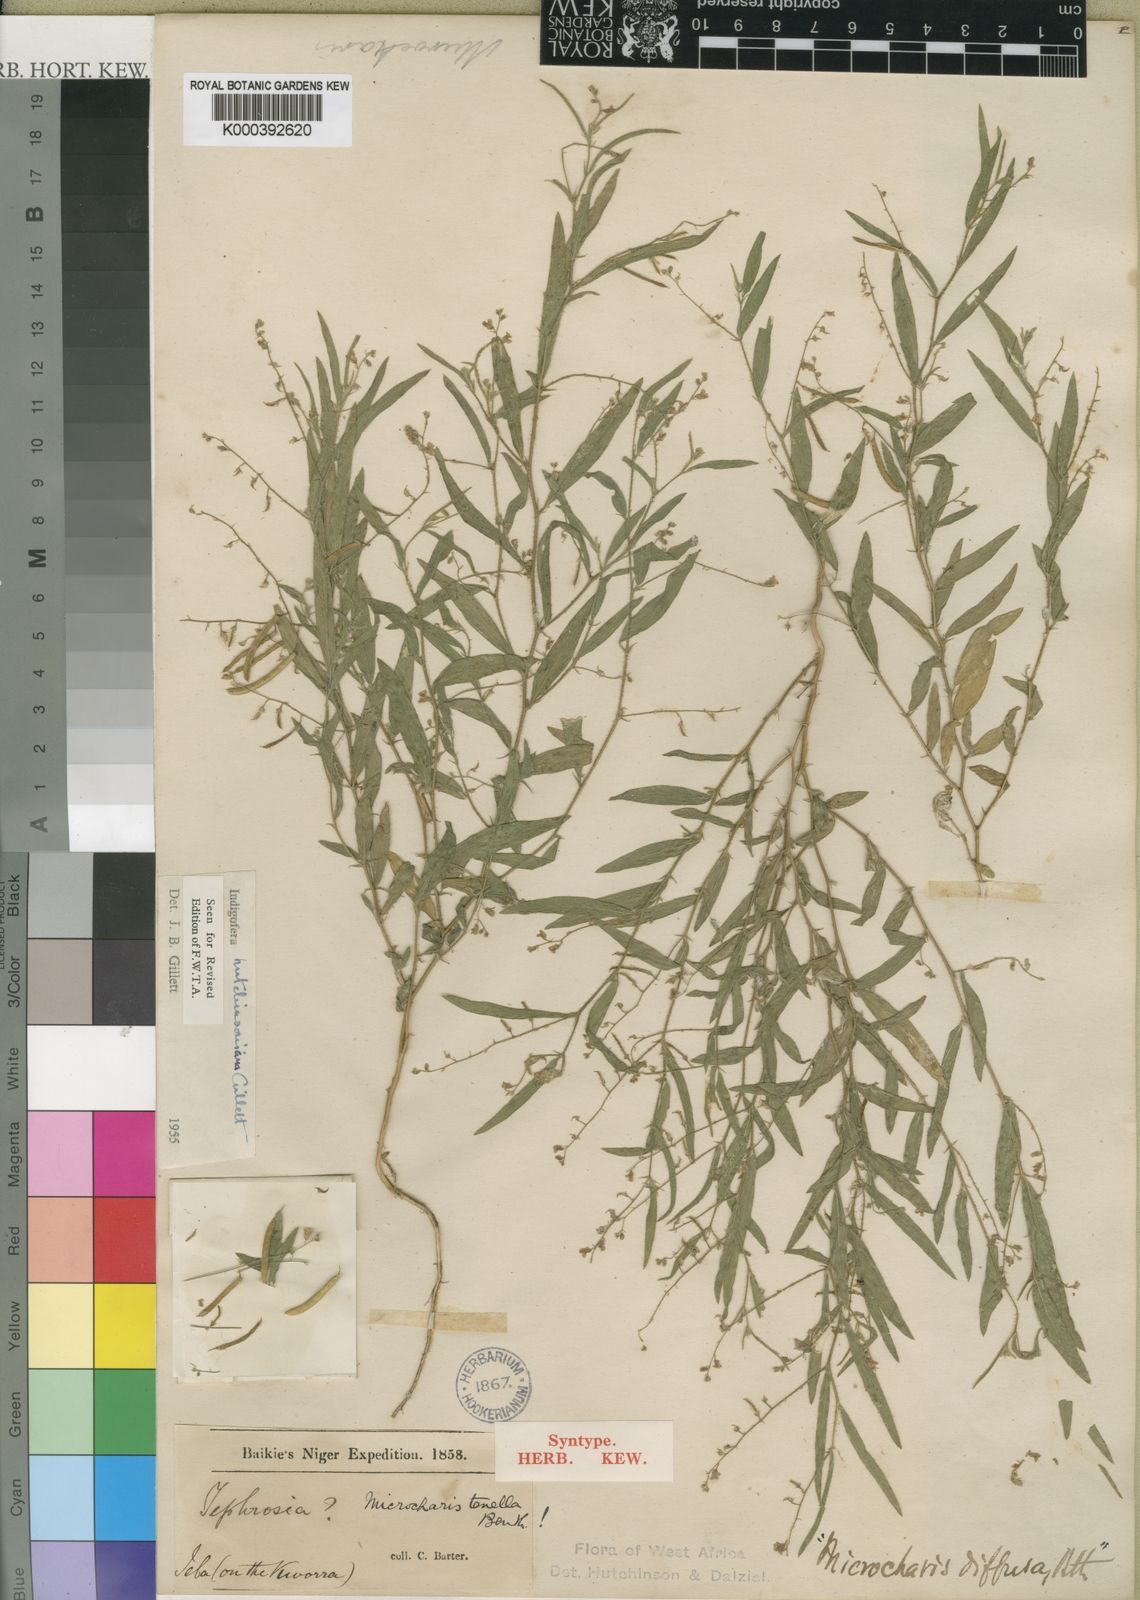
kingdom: Plantae
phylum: Tracheophyta
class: Magnoliopsida
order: Fabales
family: Fabaceae
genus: Microcharis
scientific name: Microcharis tenella
